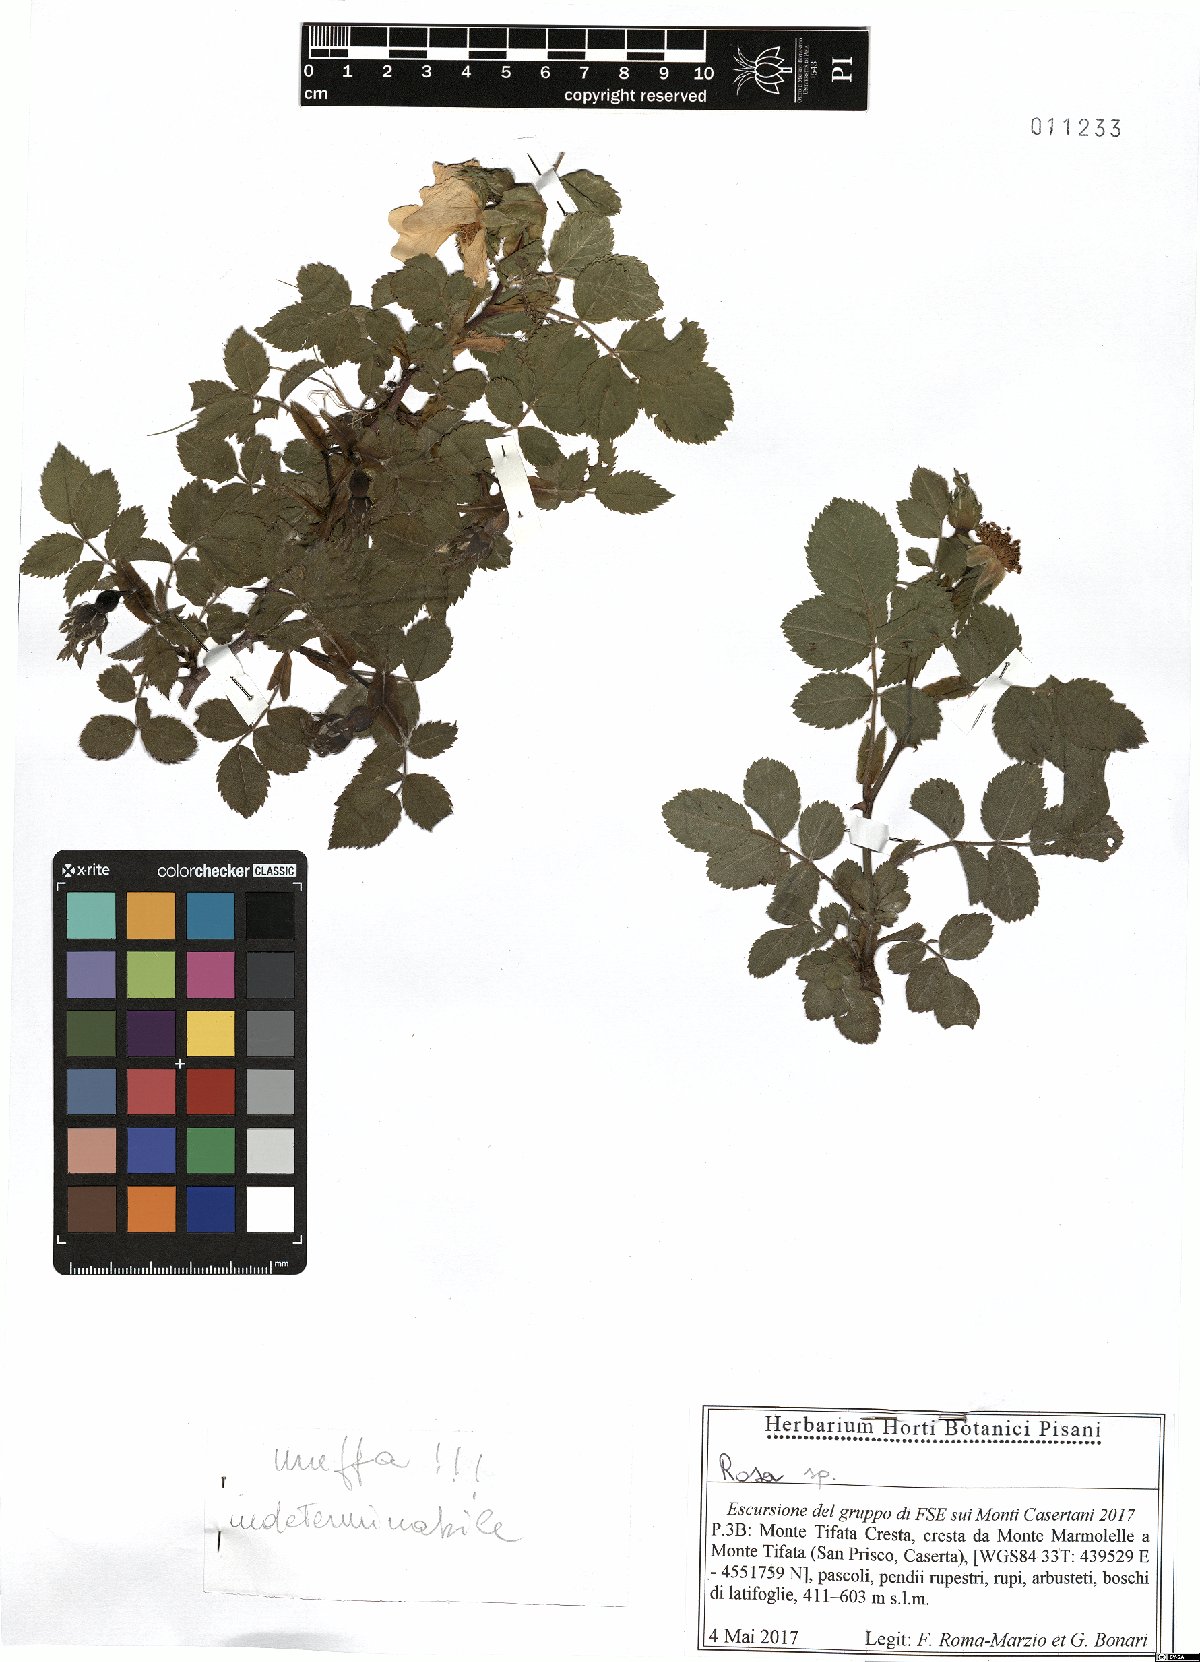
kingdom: Plantae
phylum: Tracheophyta
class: Magnoliopsida
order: Rosales
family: Rosaceae
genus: Rosa
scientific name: Rosa
